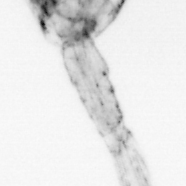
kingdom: Animalia
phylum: Arthropoda
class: Copepoda
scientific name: Copepoda
